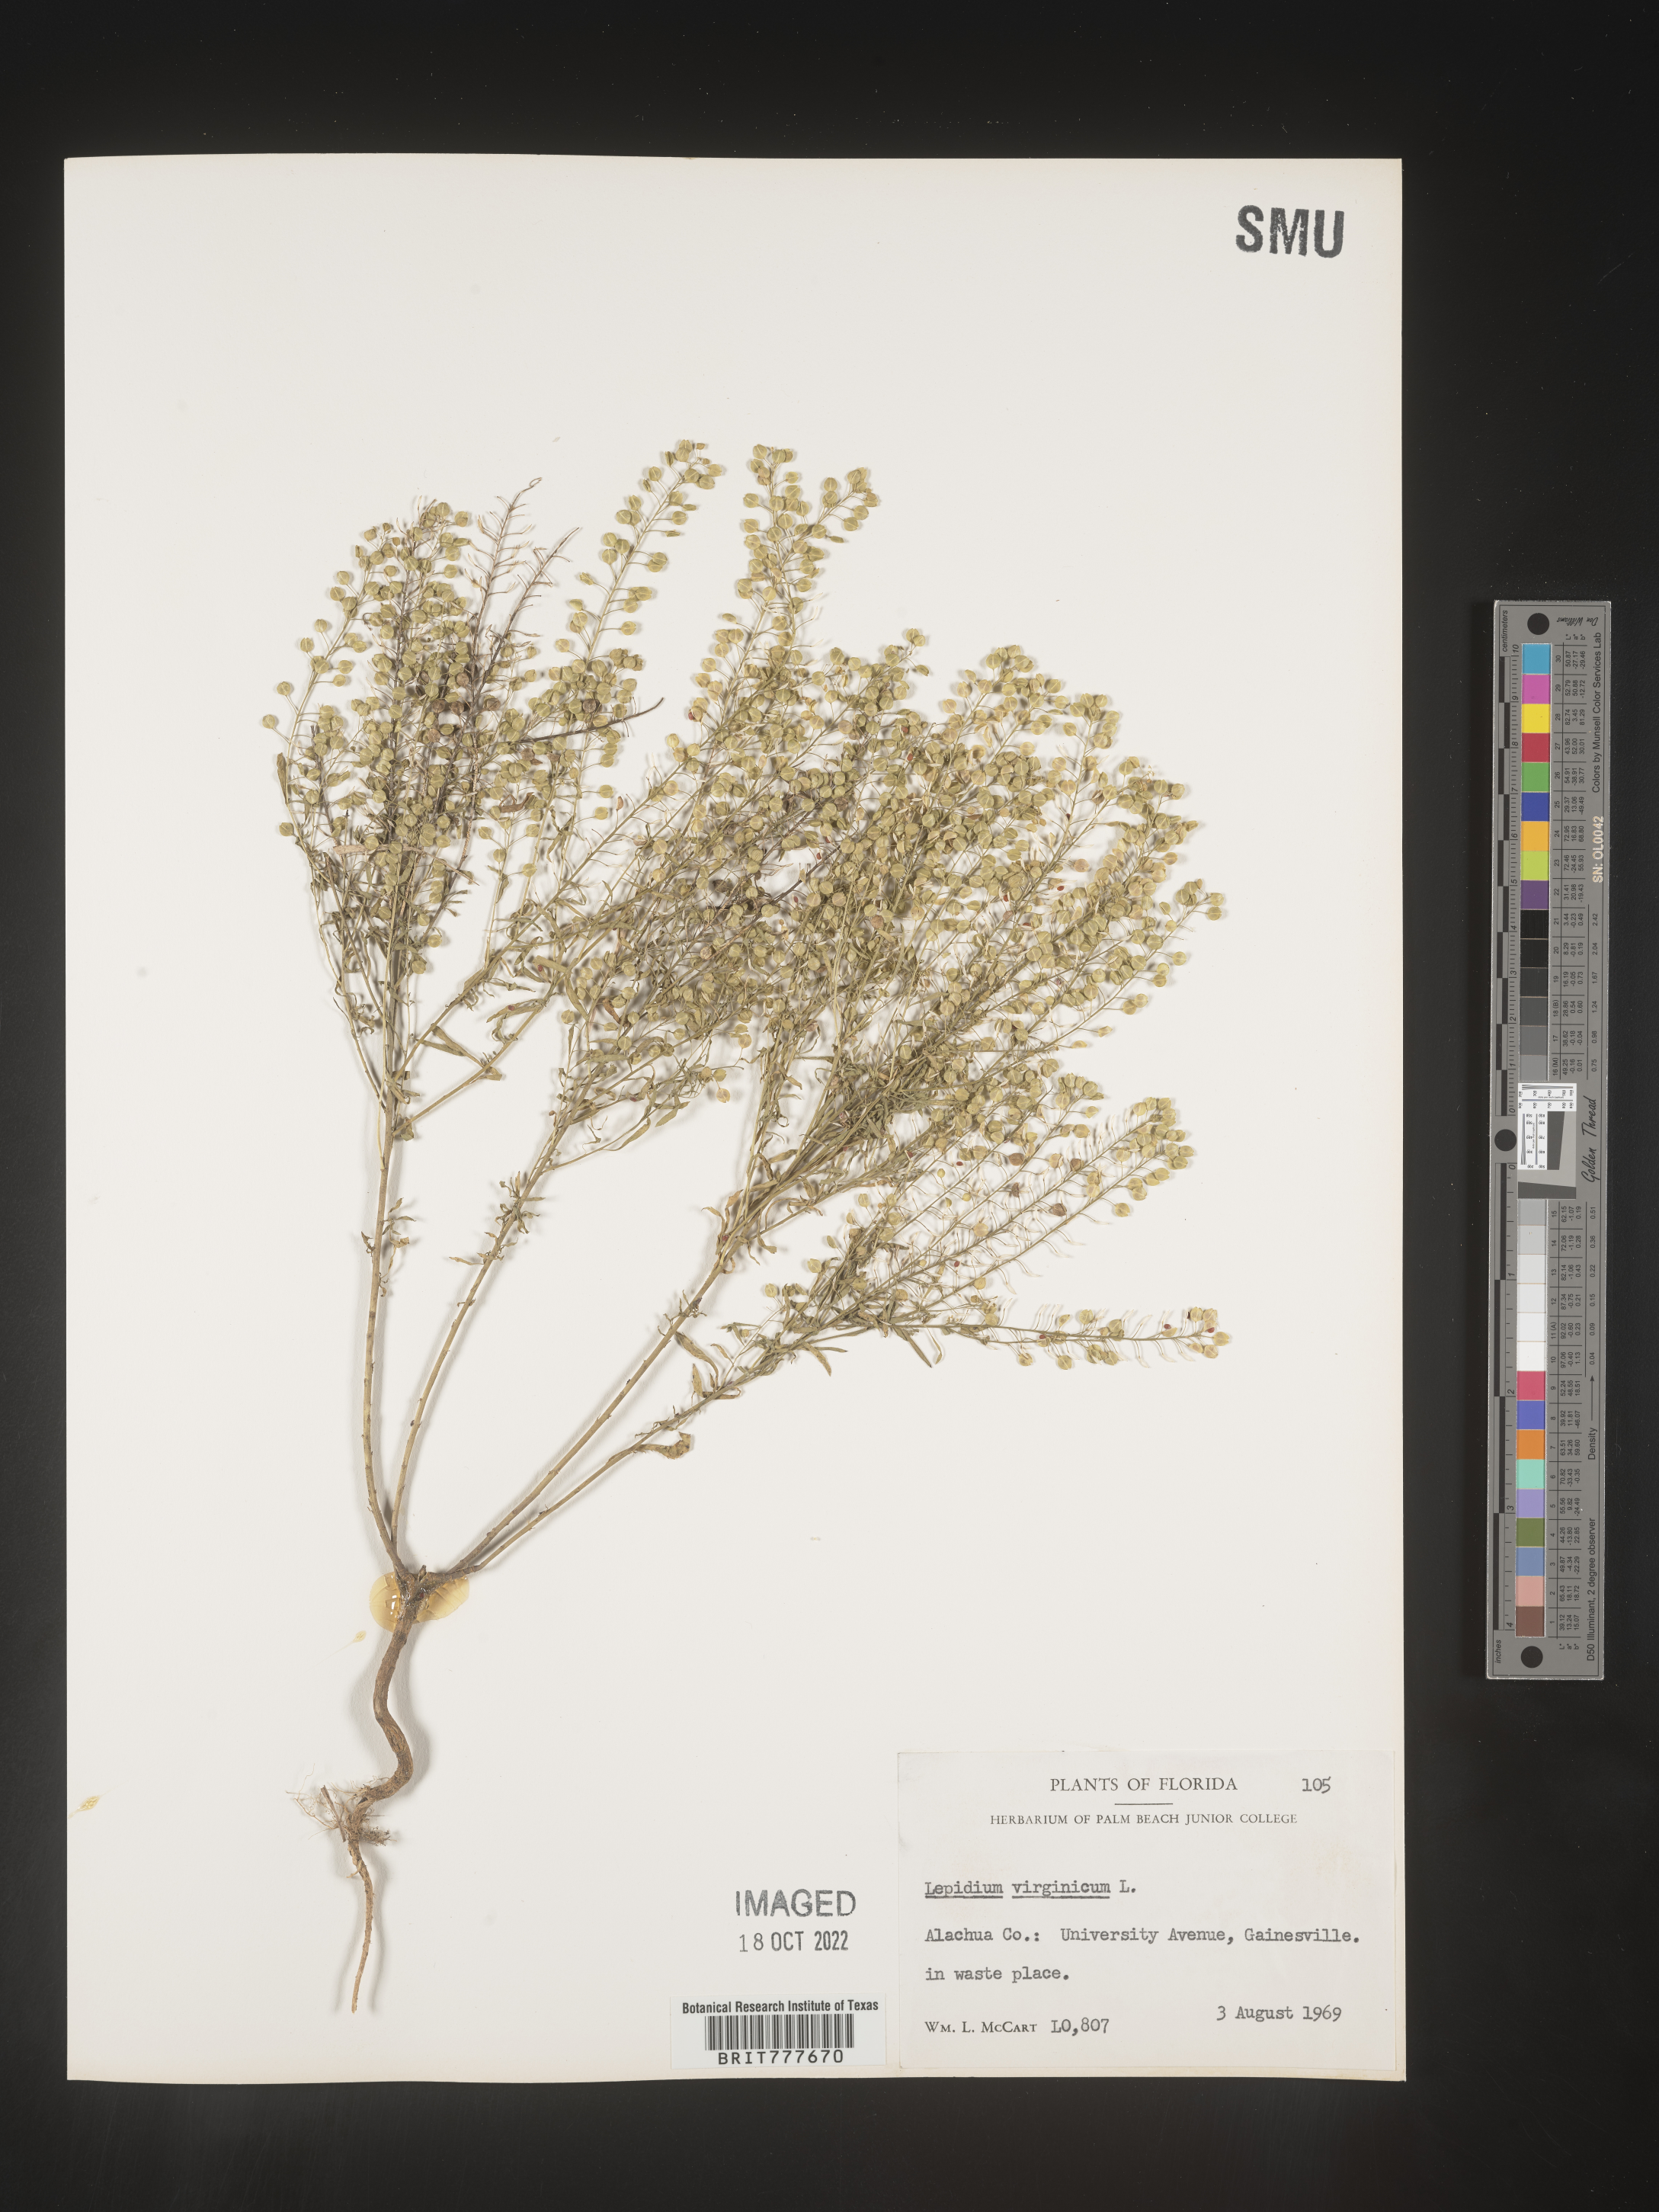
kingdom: Plantae
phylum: Tracheophyta
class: Magnoliopsida
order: Brassicales
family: Brassicaceae
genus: Lepidium
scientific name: Lepidium virginicum
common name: Least pepperwort
